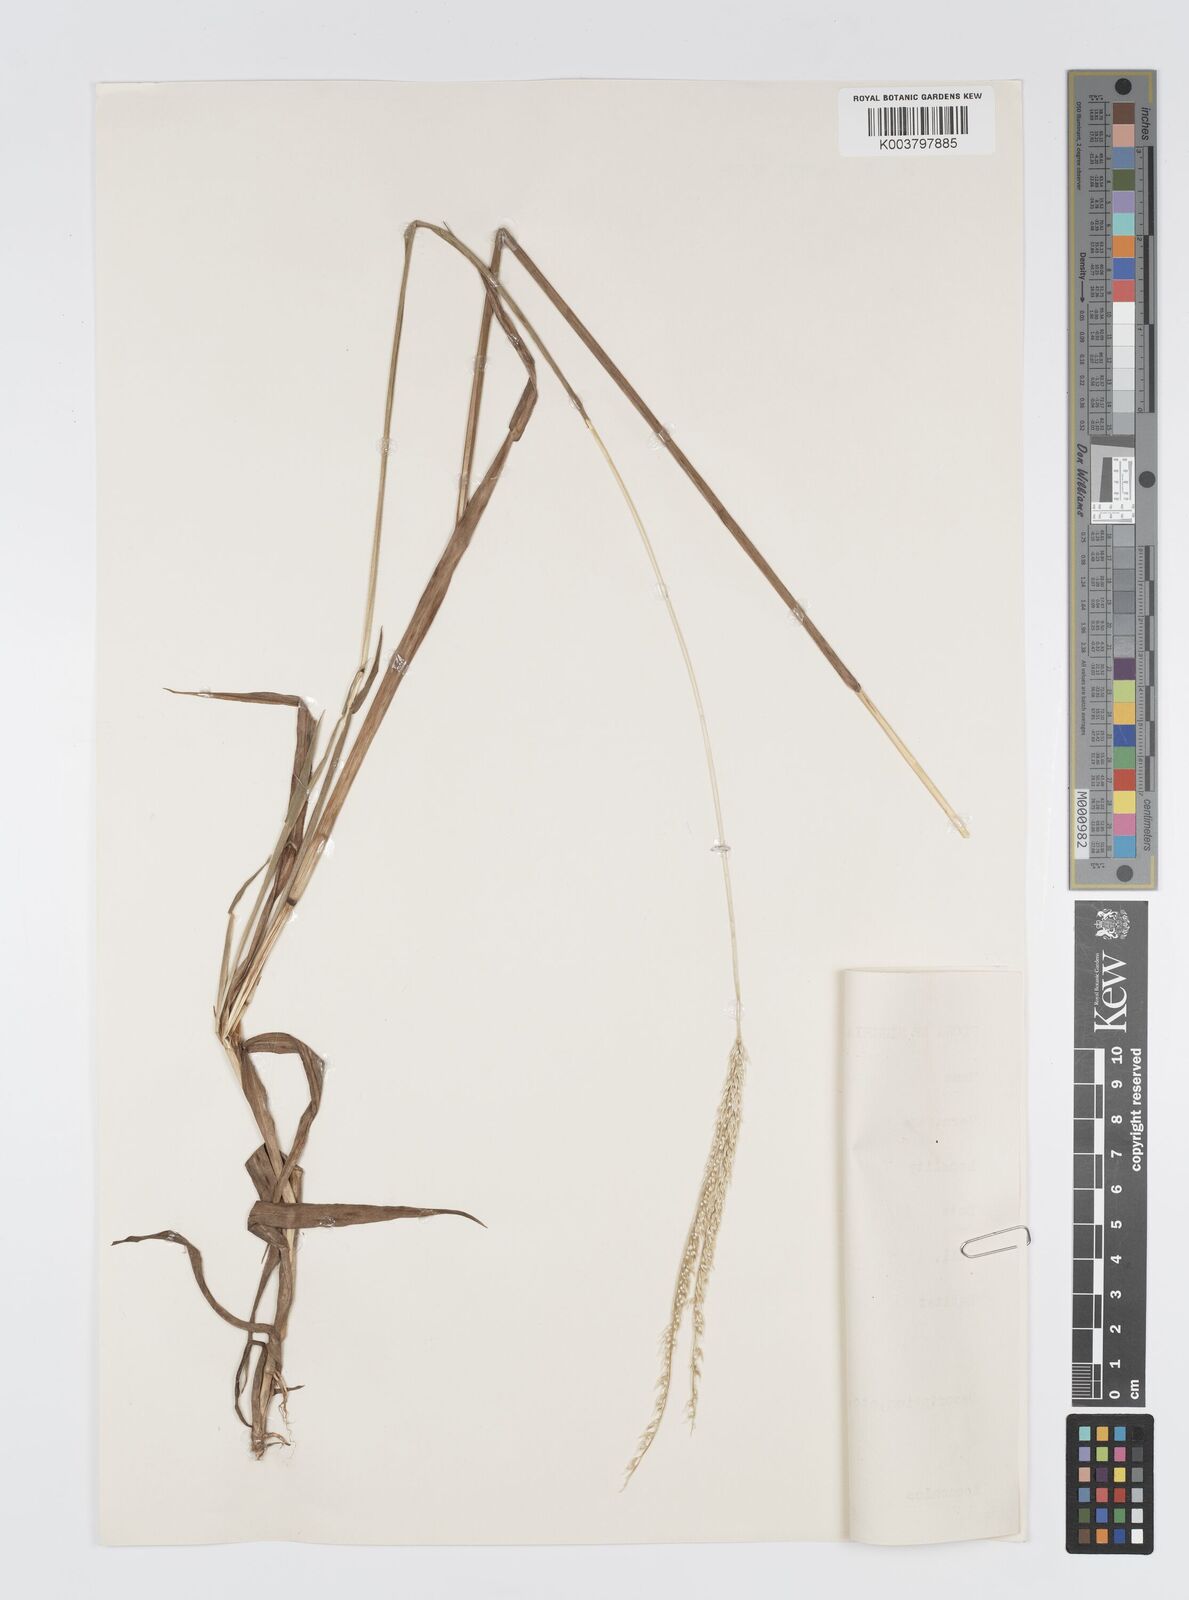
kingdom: Plantae
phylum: Tracheophyta
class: Liliopsida
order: Poales
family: Poaceae
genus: Digitaria
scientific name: Digitaria gayana
